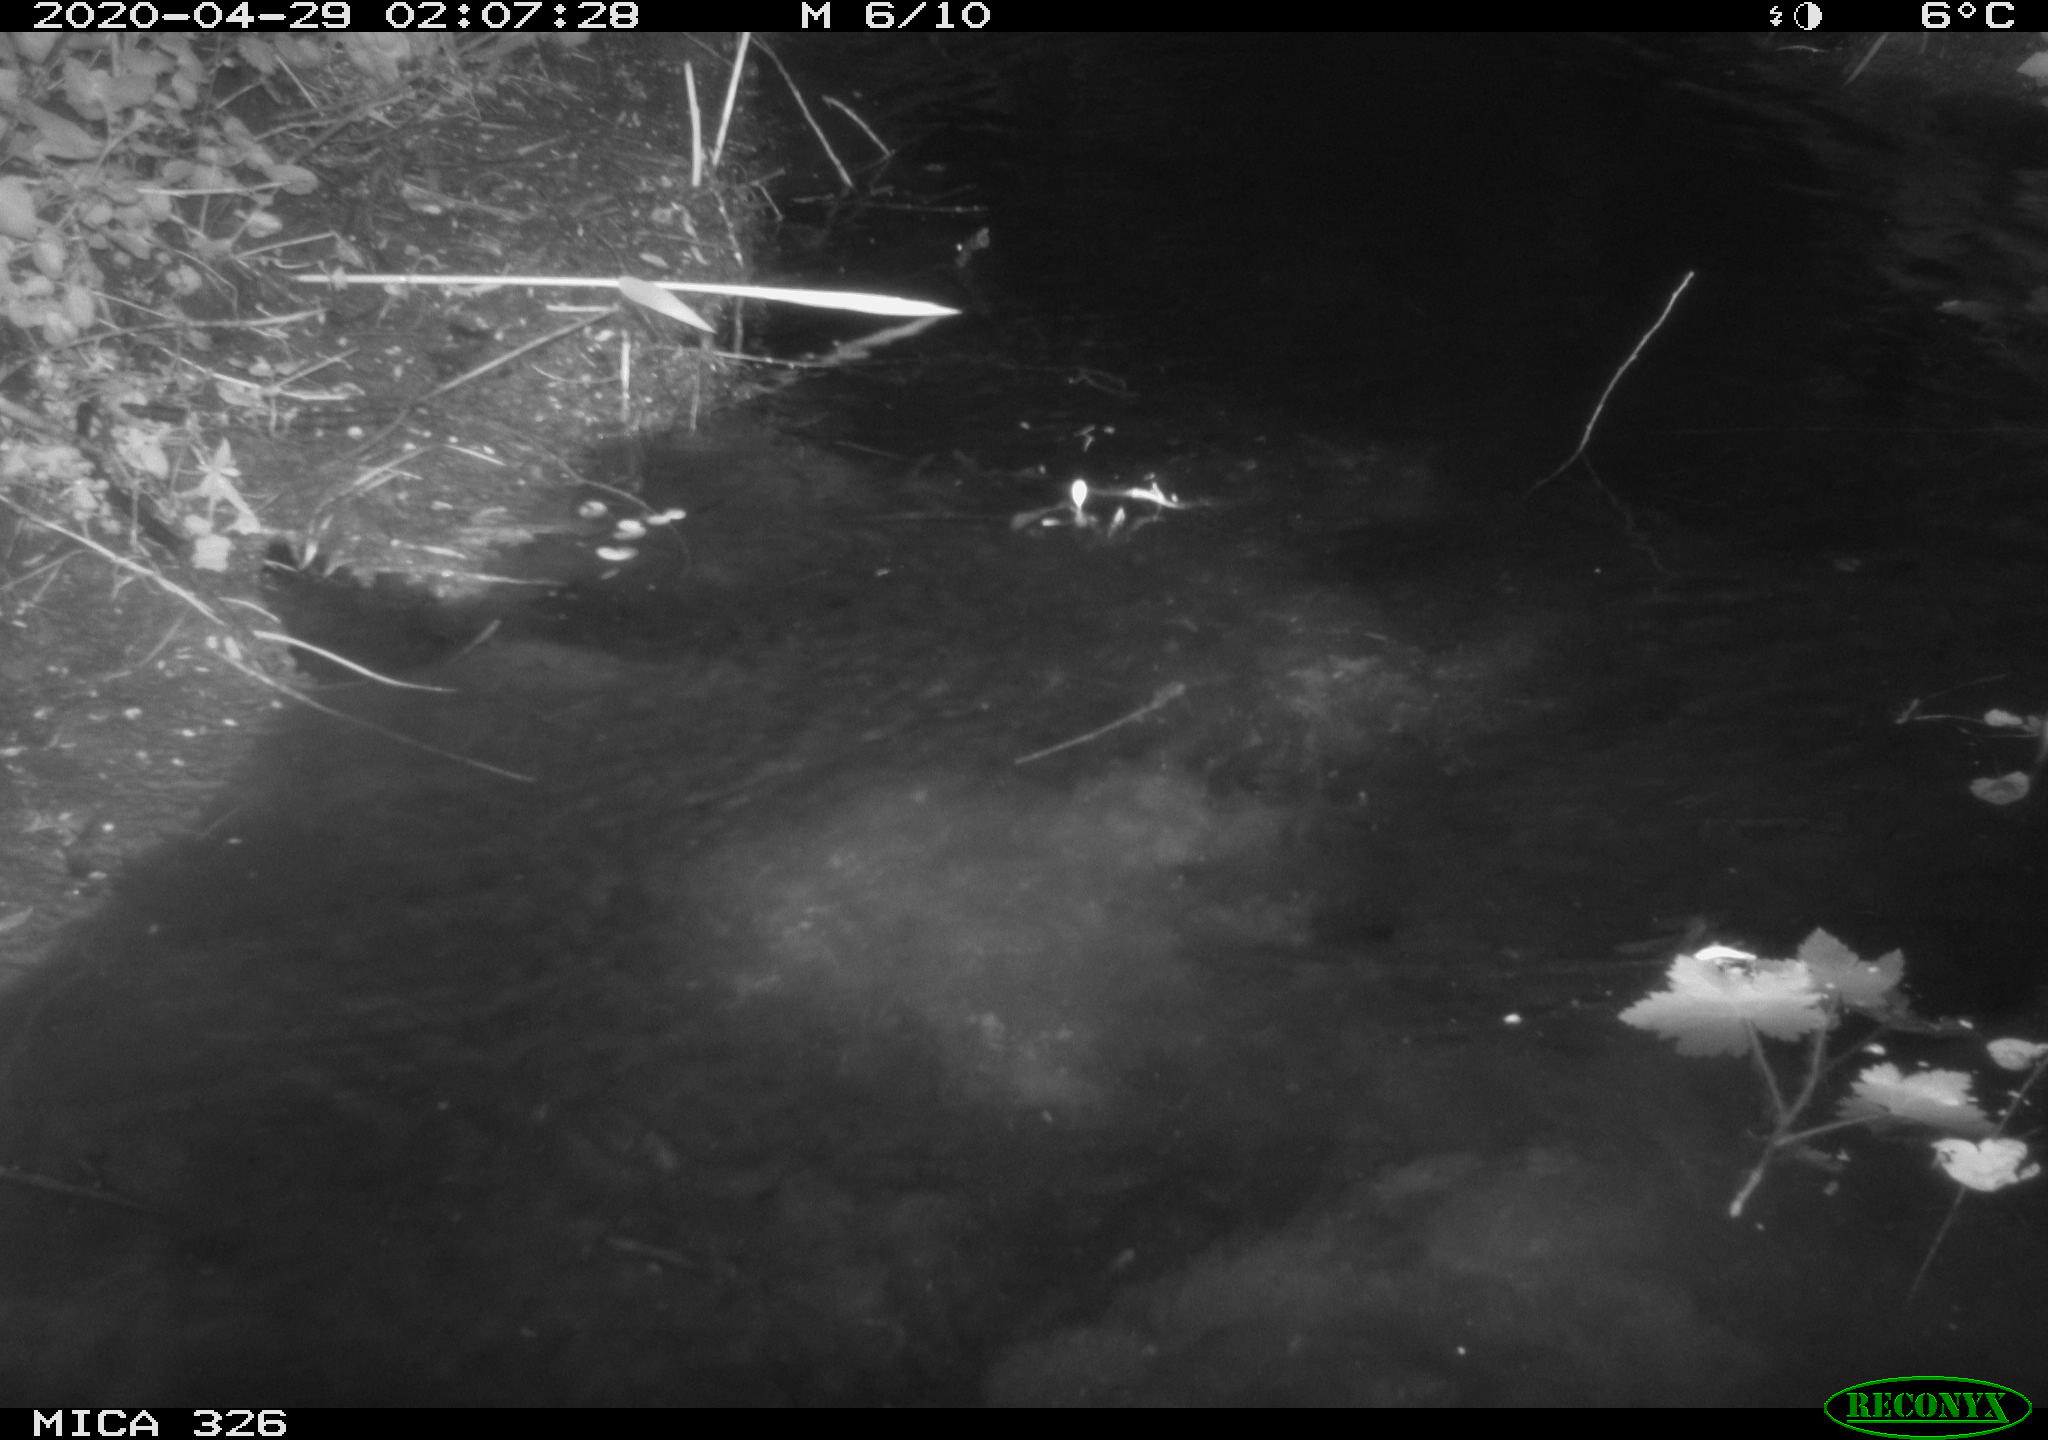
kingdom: Animalia
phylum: Chordata
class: Mammalia
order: Rodentia
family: Cricetidae
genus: Ondatra
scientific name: Ondatra zibethicus
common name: Muskrat
